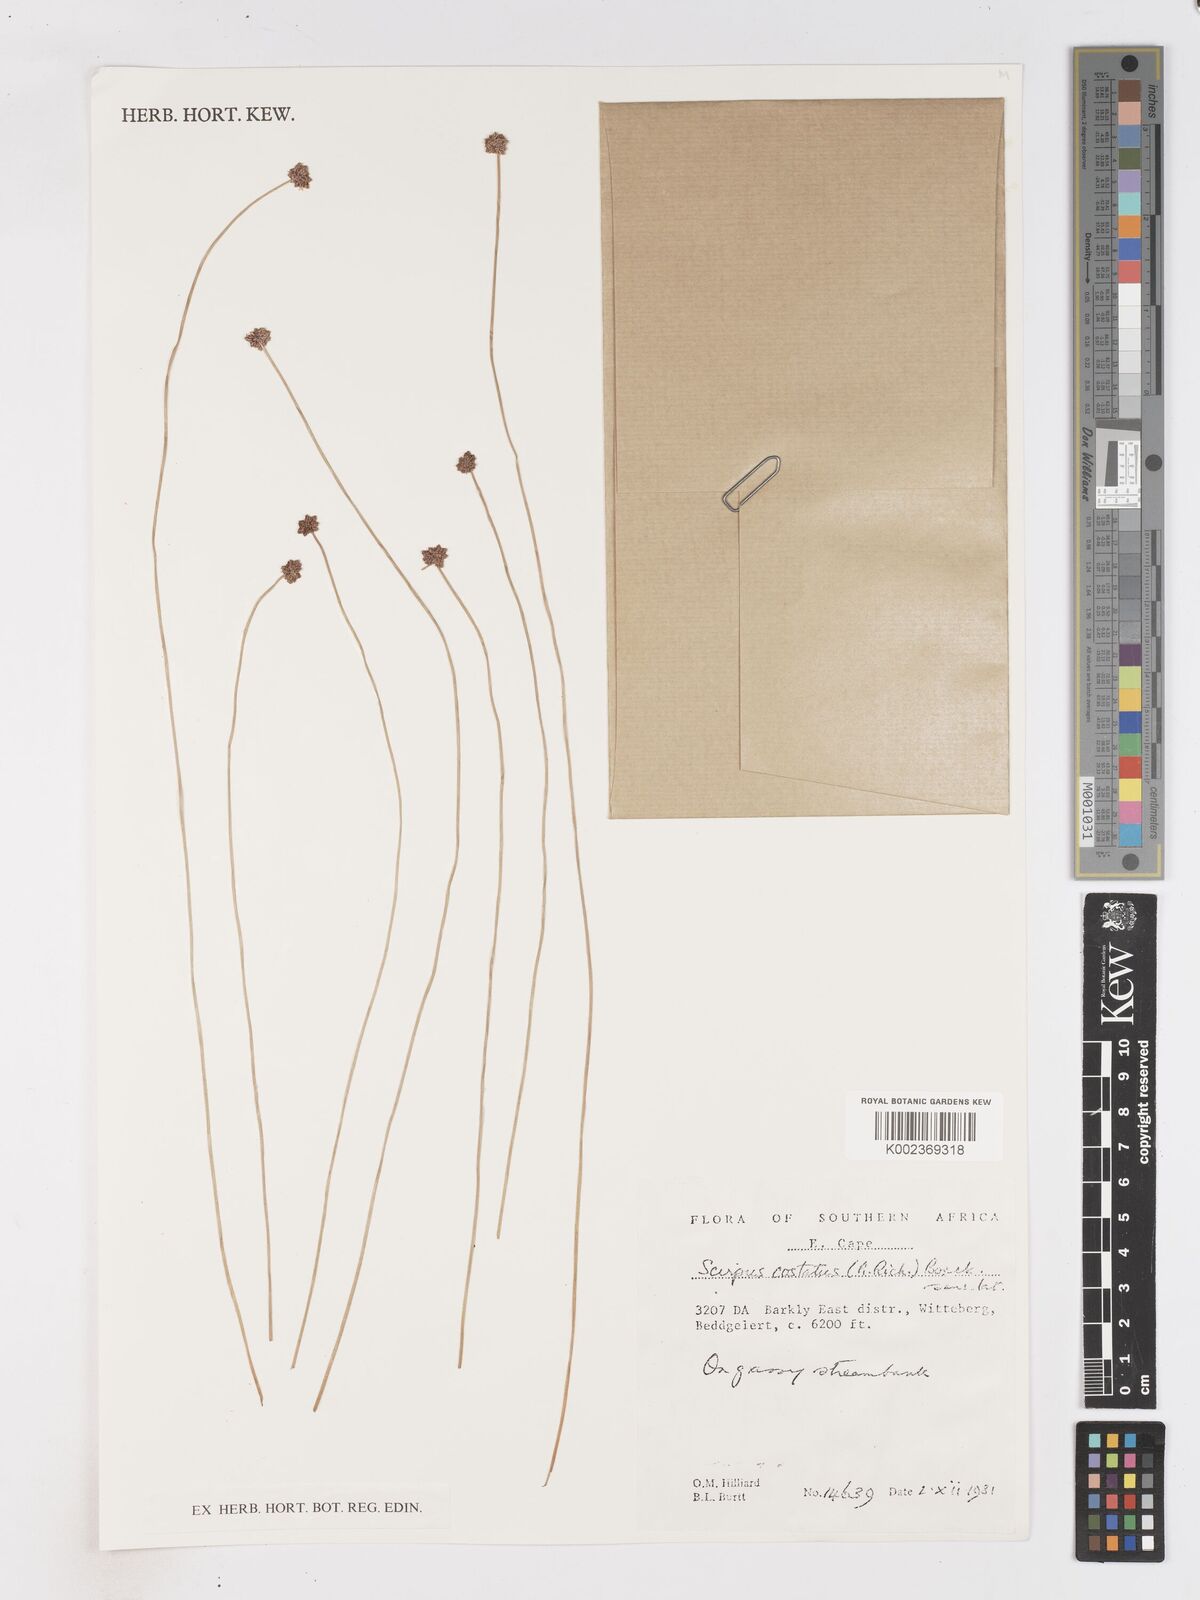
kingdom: Plantae
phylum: Tracheophyta
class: Liliopsida
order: Poales
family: Cyperaceae
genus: Isolepis
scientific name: Isolepis costata
